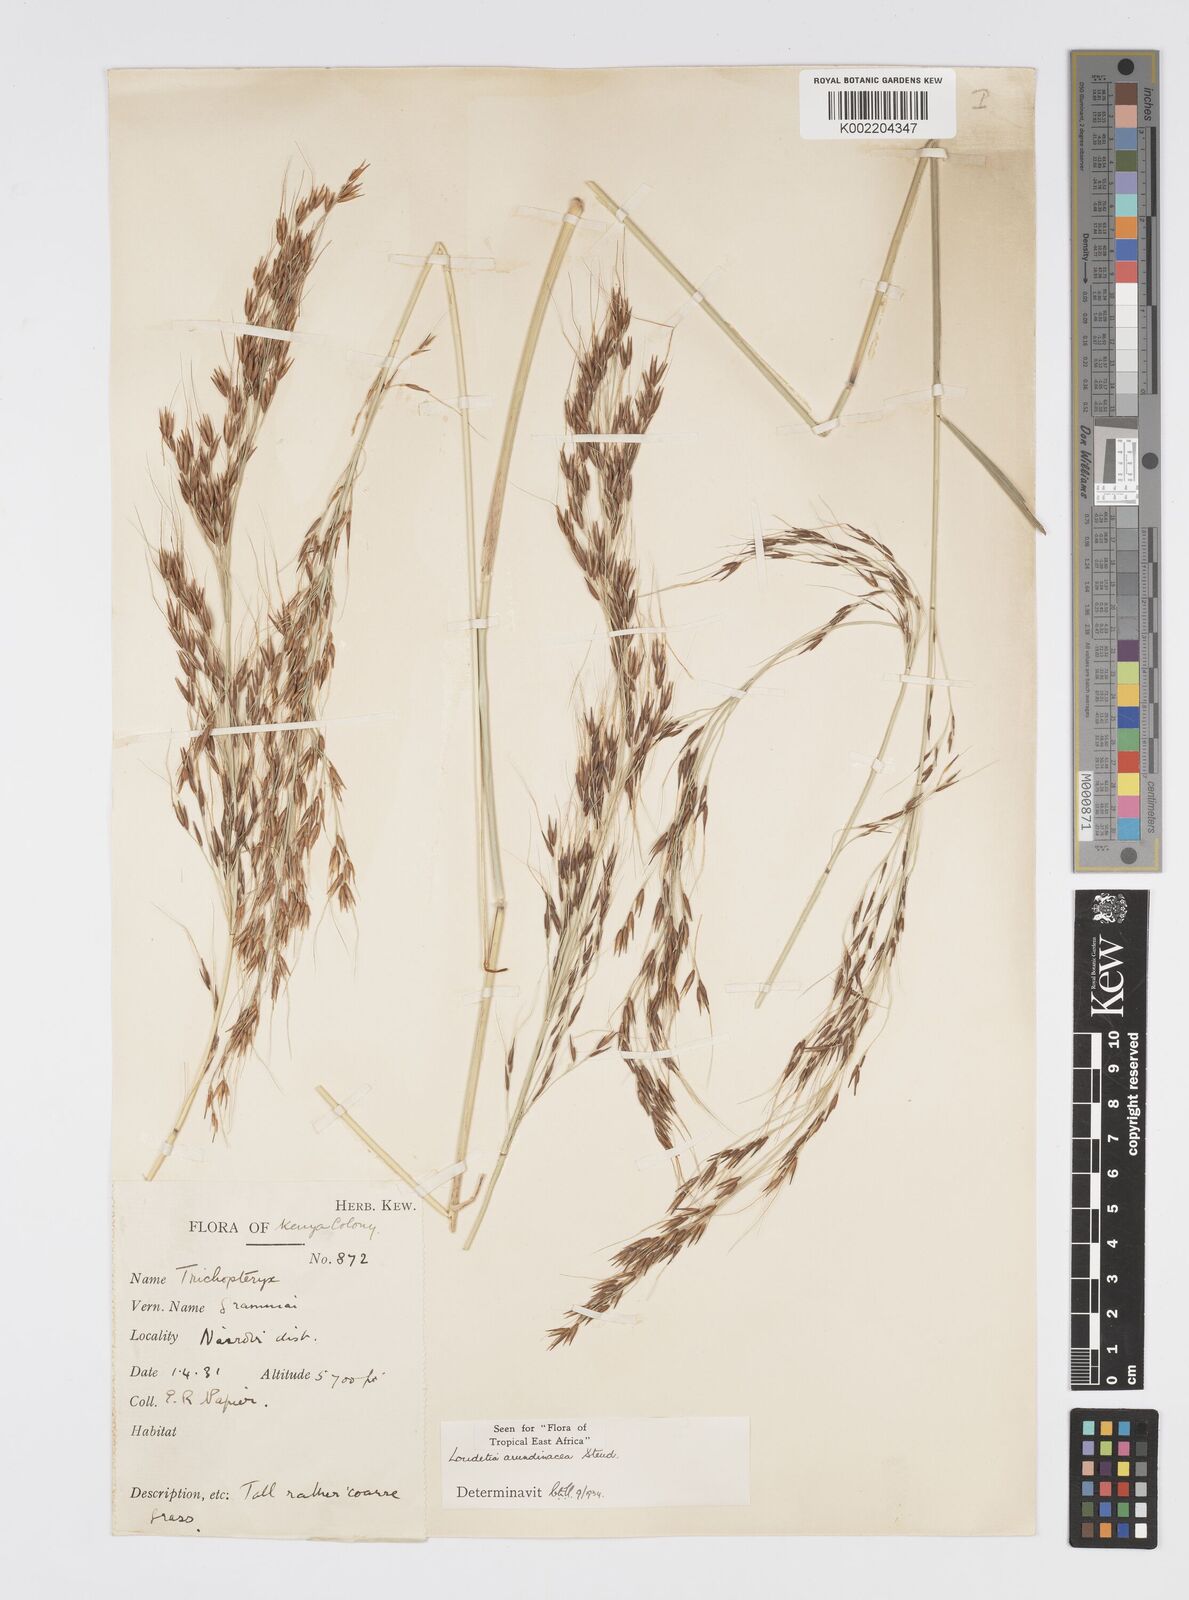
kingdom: Plantae
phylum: Tracheophyta
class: Liliopsida
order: Poales
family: Poaceae
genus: Loudetia
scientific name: Loudetia arundinacea
